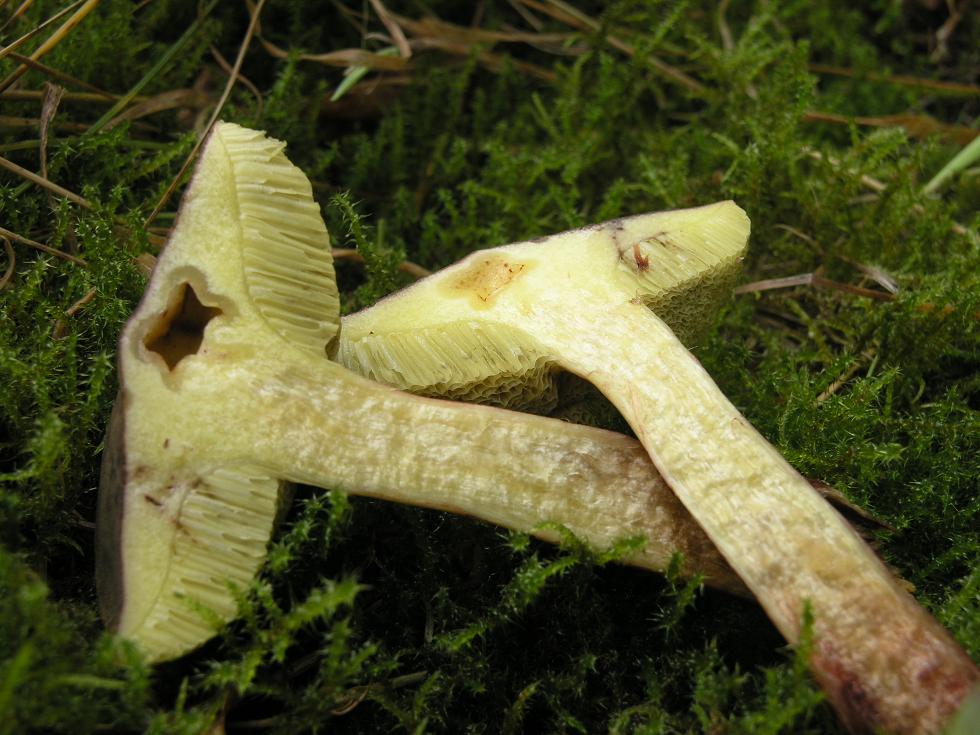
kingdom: Fungi
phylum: Basidiomycota
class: Agaricomycetes
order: Boletales
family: Boletaceae
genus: Xerocomellus
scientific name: Xerocomellus pruinatus
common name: dugget rørhat
